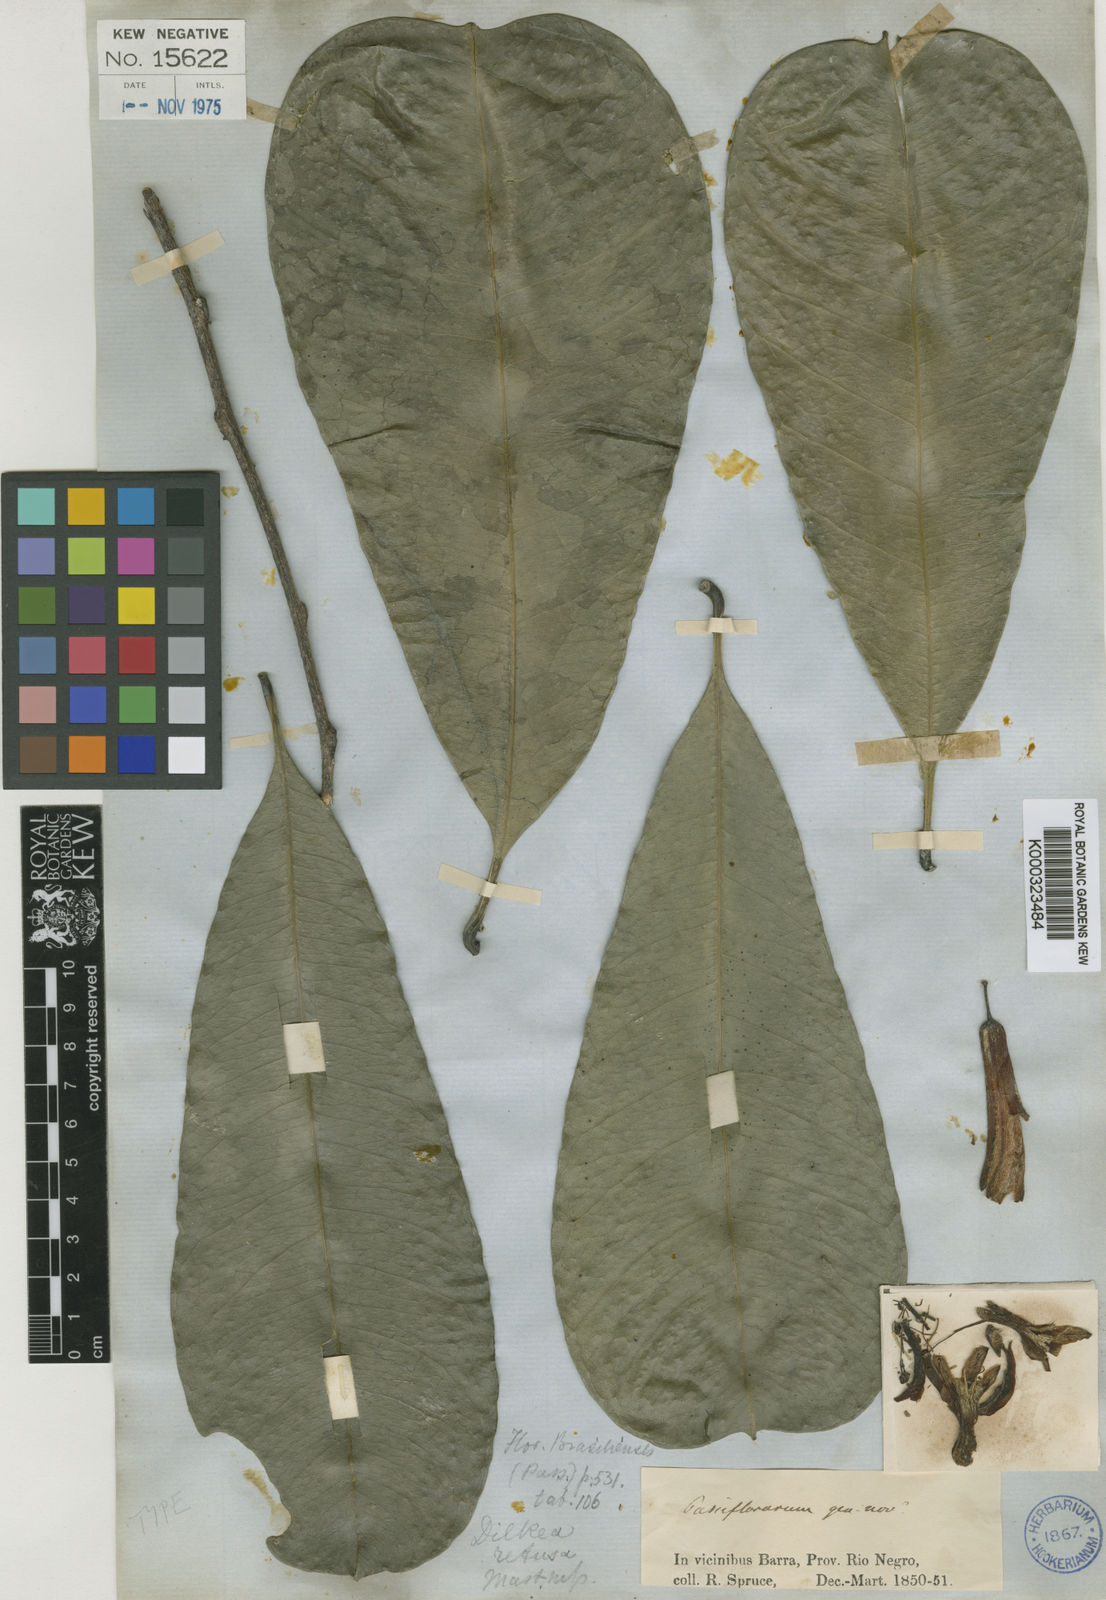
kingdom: Plantae
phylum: Tracheophyta
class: Magnoliopsida
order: Malpighiales
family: Passifloraceae
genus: Dilkea
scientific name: Dilkea retusa
